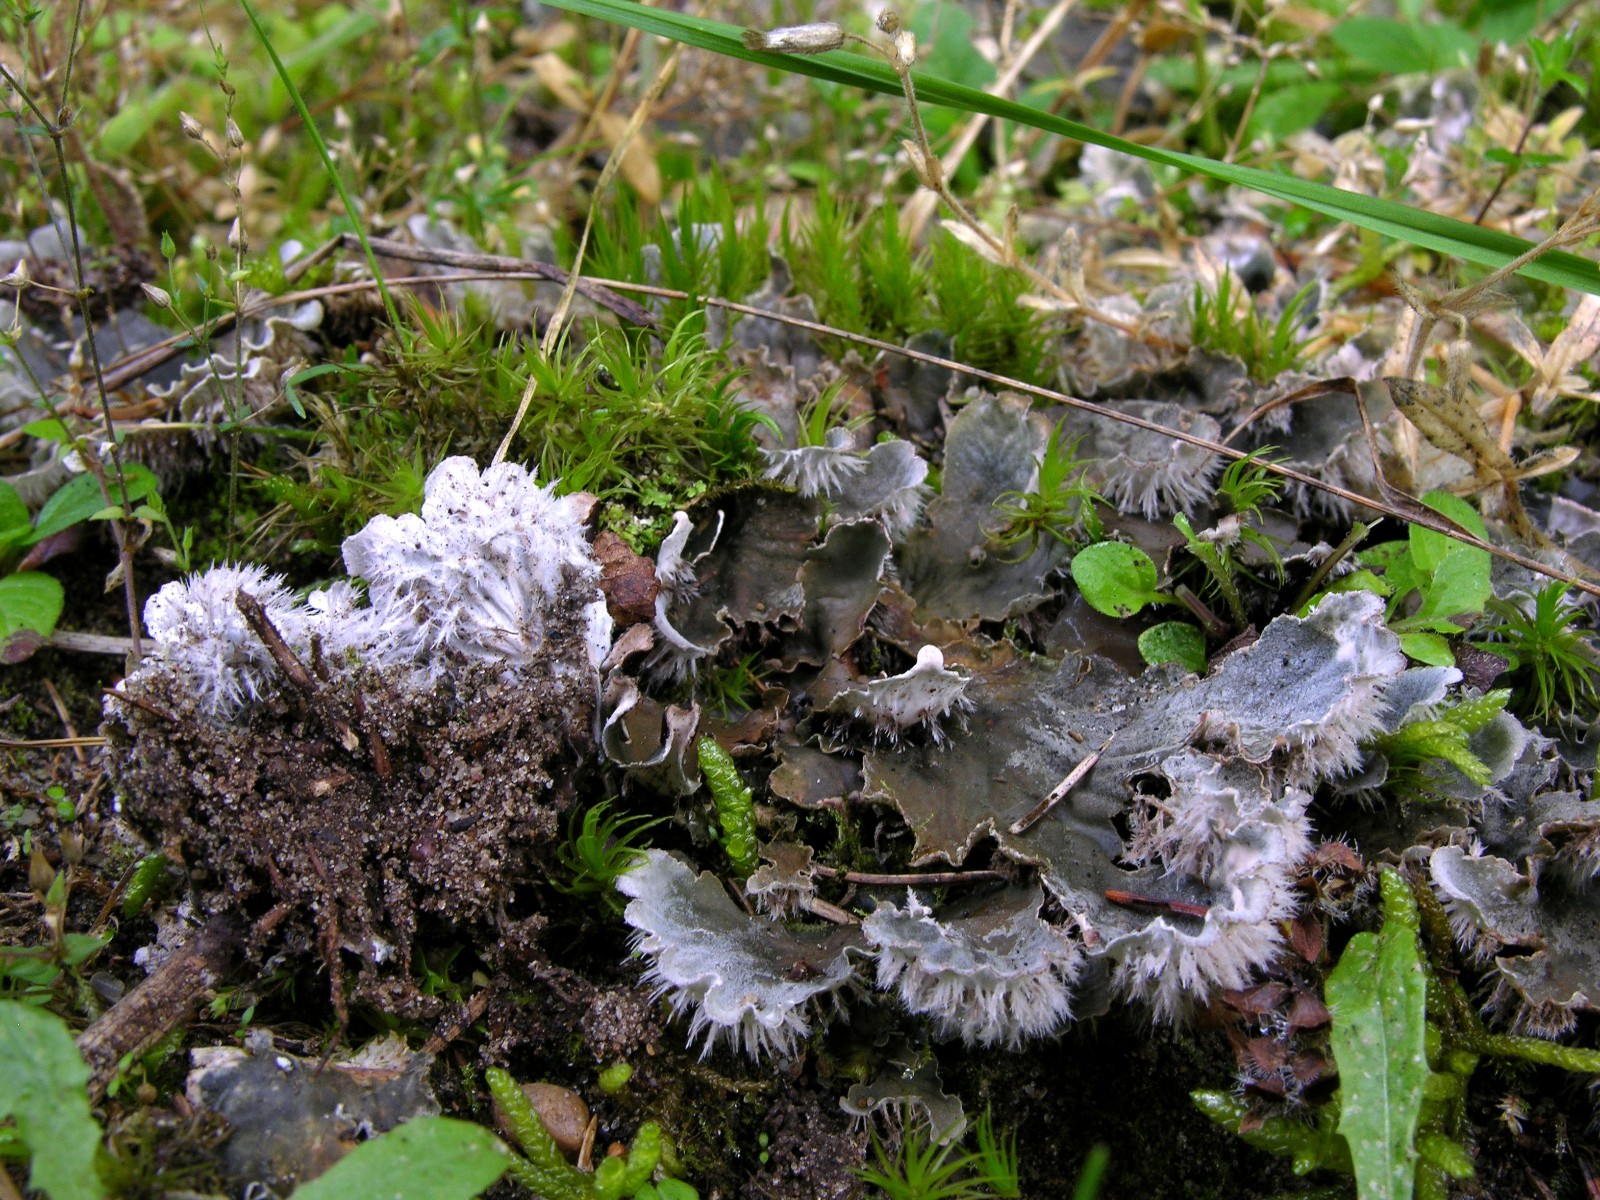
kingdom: Fungi
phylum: Ascomycota
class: Lecanoromycetes
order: Peltigerales
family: Peltigeraceae
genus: Peltigera
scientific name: Peltigera membranacea
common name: tynd skjoldlav
